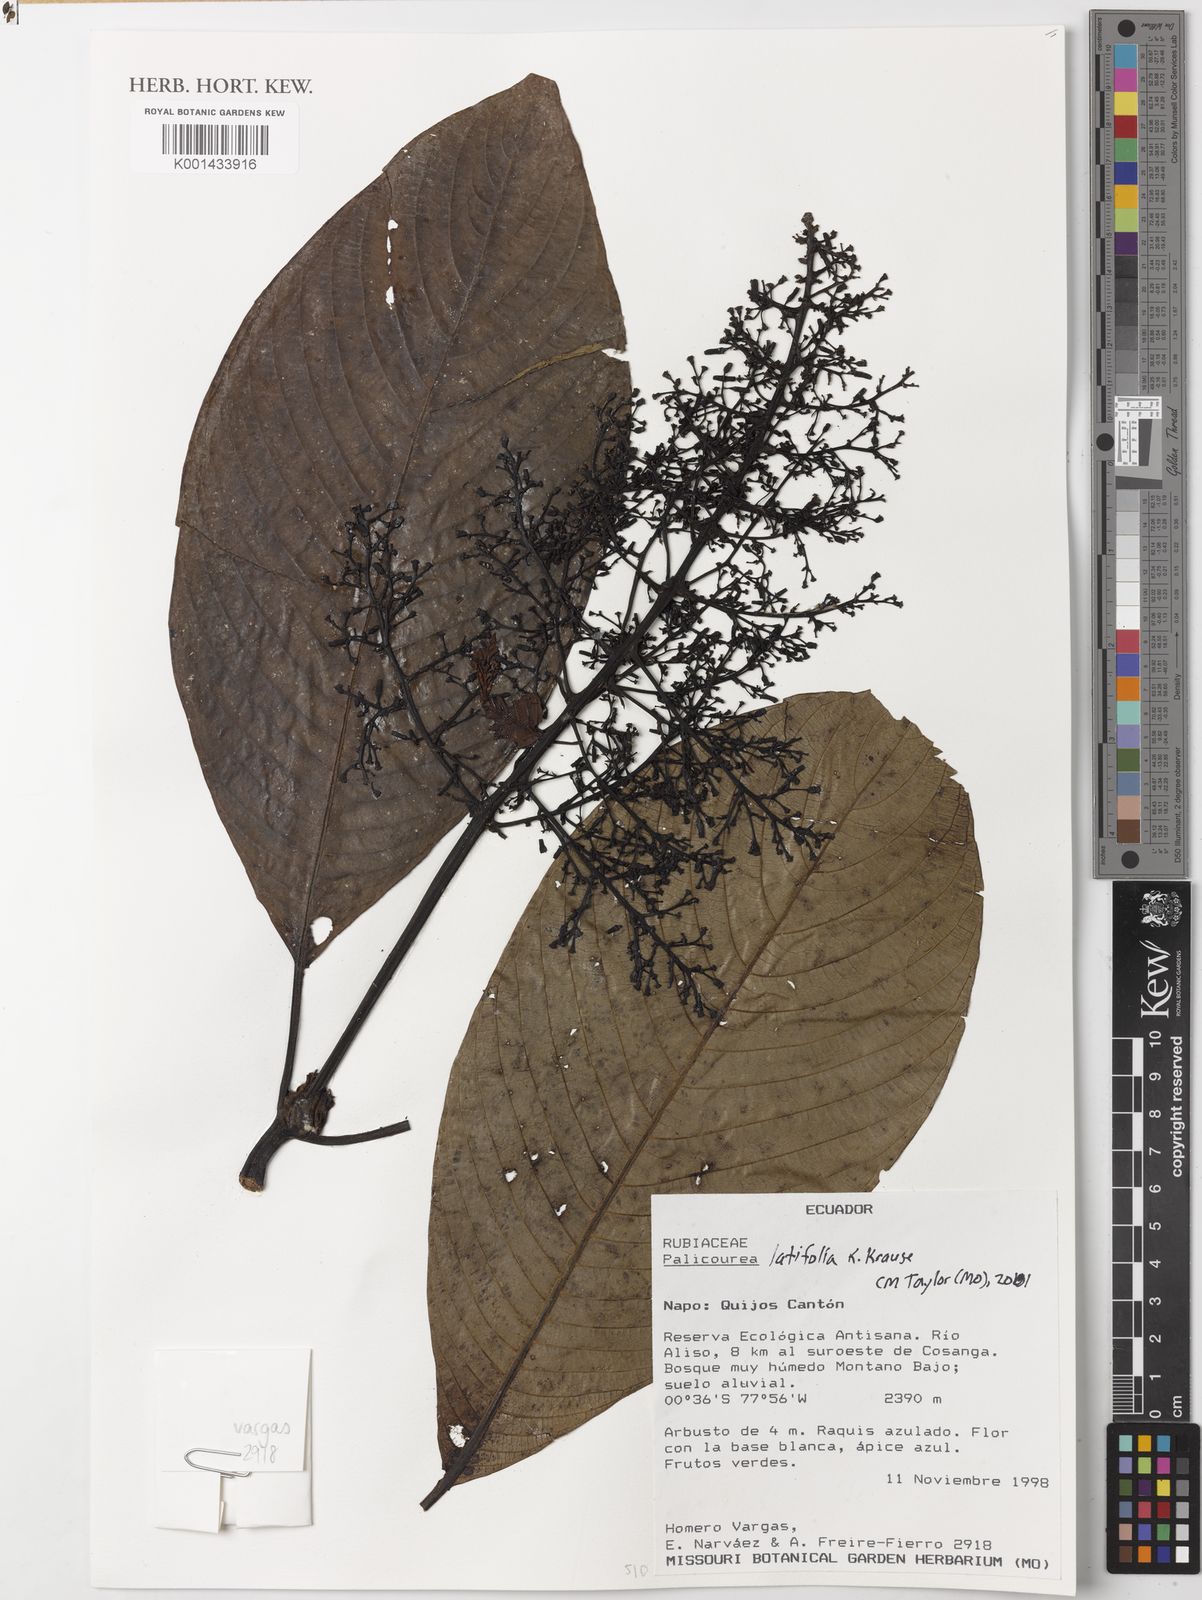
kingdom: Plantae
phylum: Tracheophyta
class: Magnoliopsida
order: Gentianales
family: Rubiaceae
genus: Palicourea
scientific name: Palicourea latifolia
